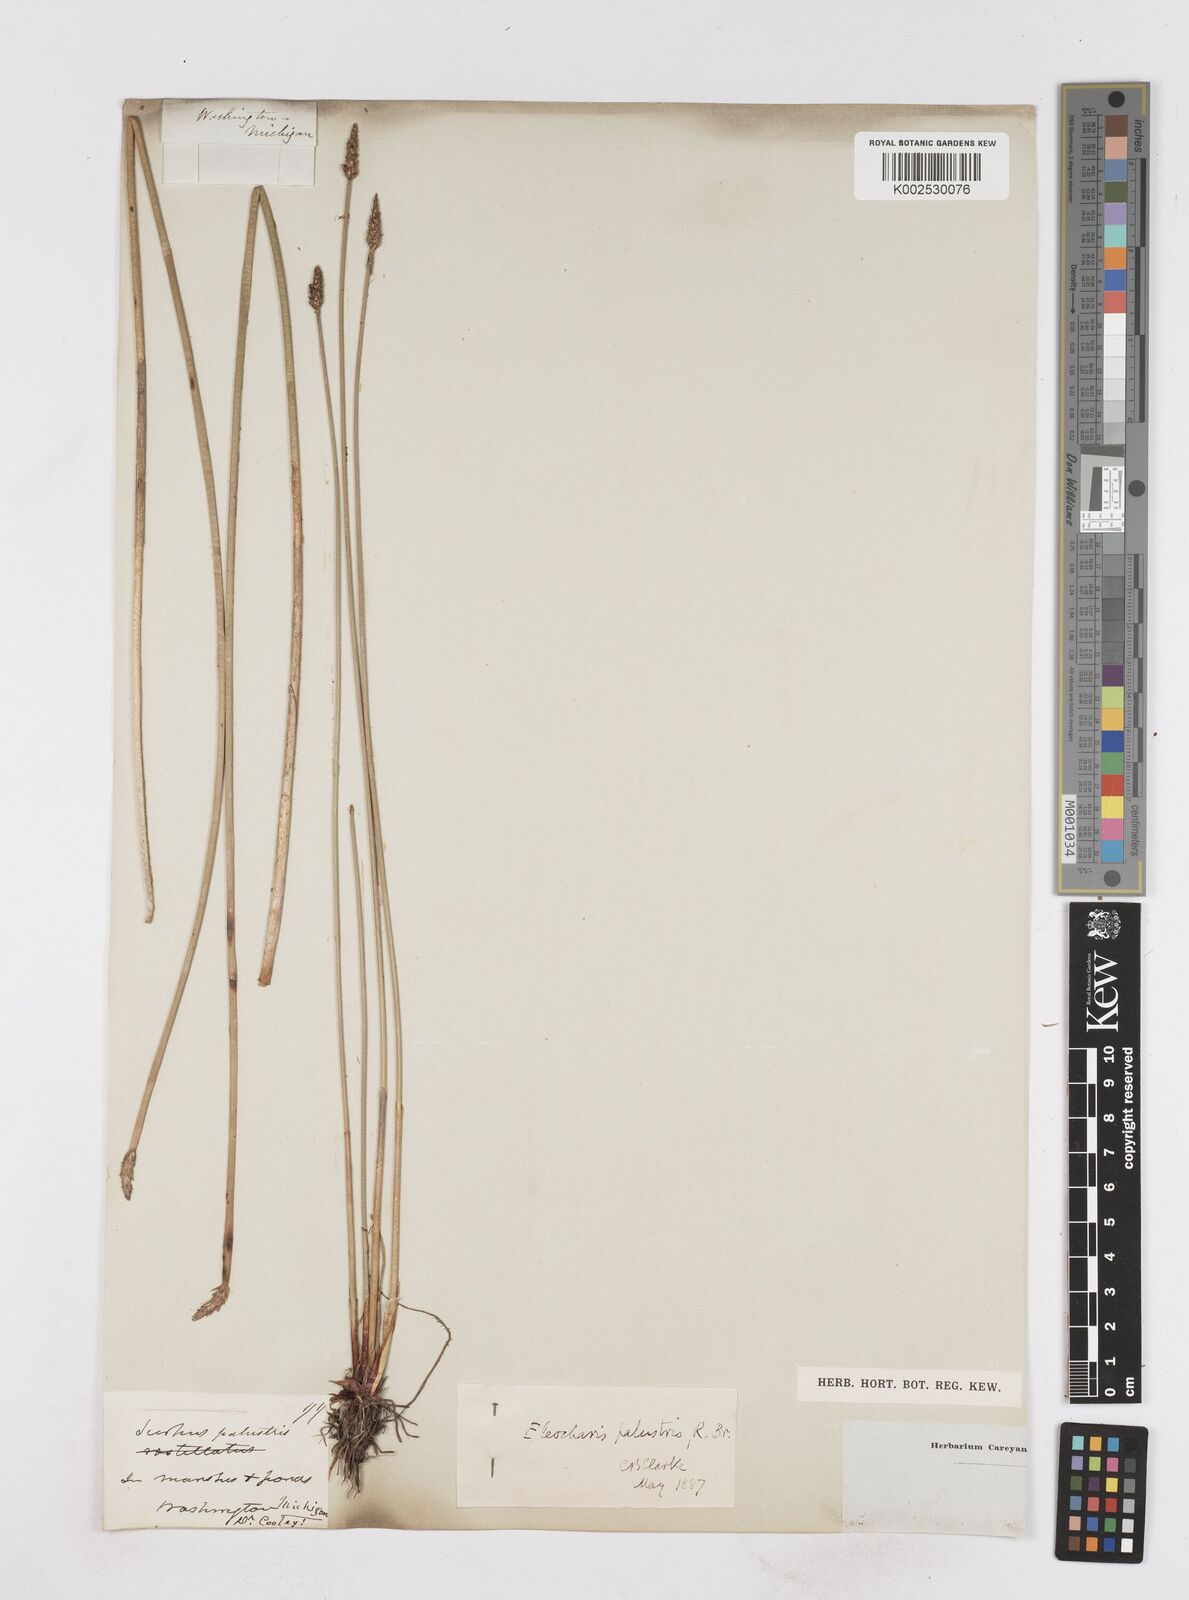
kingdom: Plantae
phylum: Tracheophyta
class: Liliopsida
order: Poales
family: Cyperaceae
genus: Eleocharis
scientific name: Eleocharis palustris
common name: Common spike-rush
